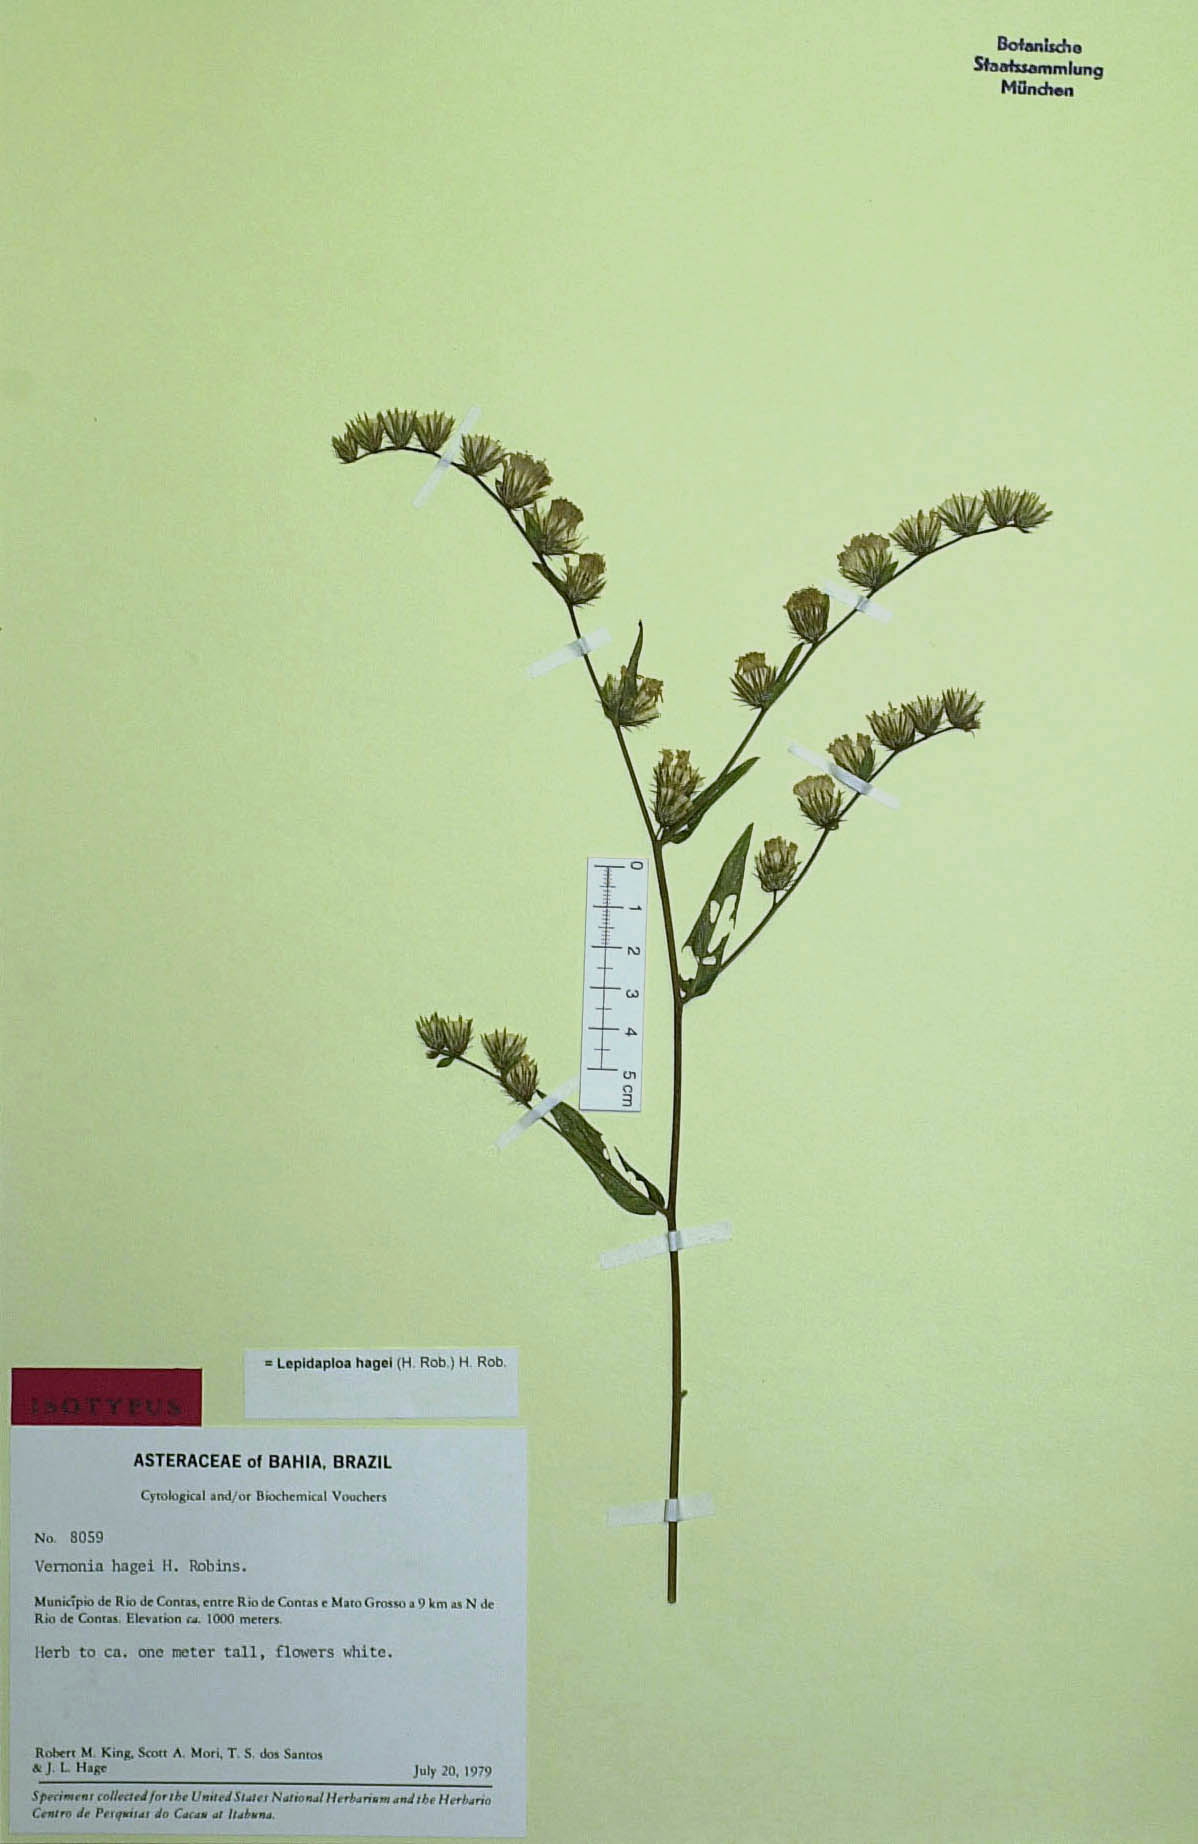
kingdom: Plantae
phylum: Tracheophyta
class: Magnoliopsida
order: Asterales
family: Asteraceae
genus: Lepidaploa
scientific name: Lepidaploa hagei
